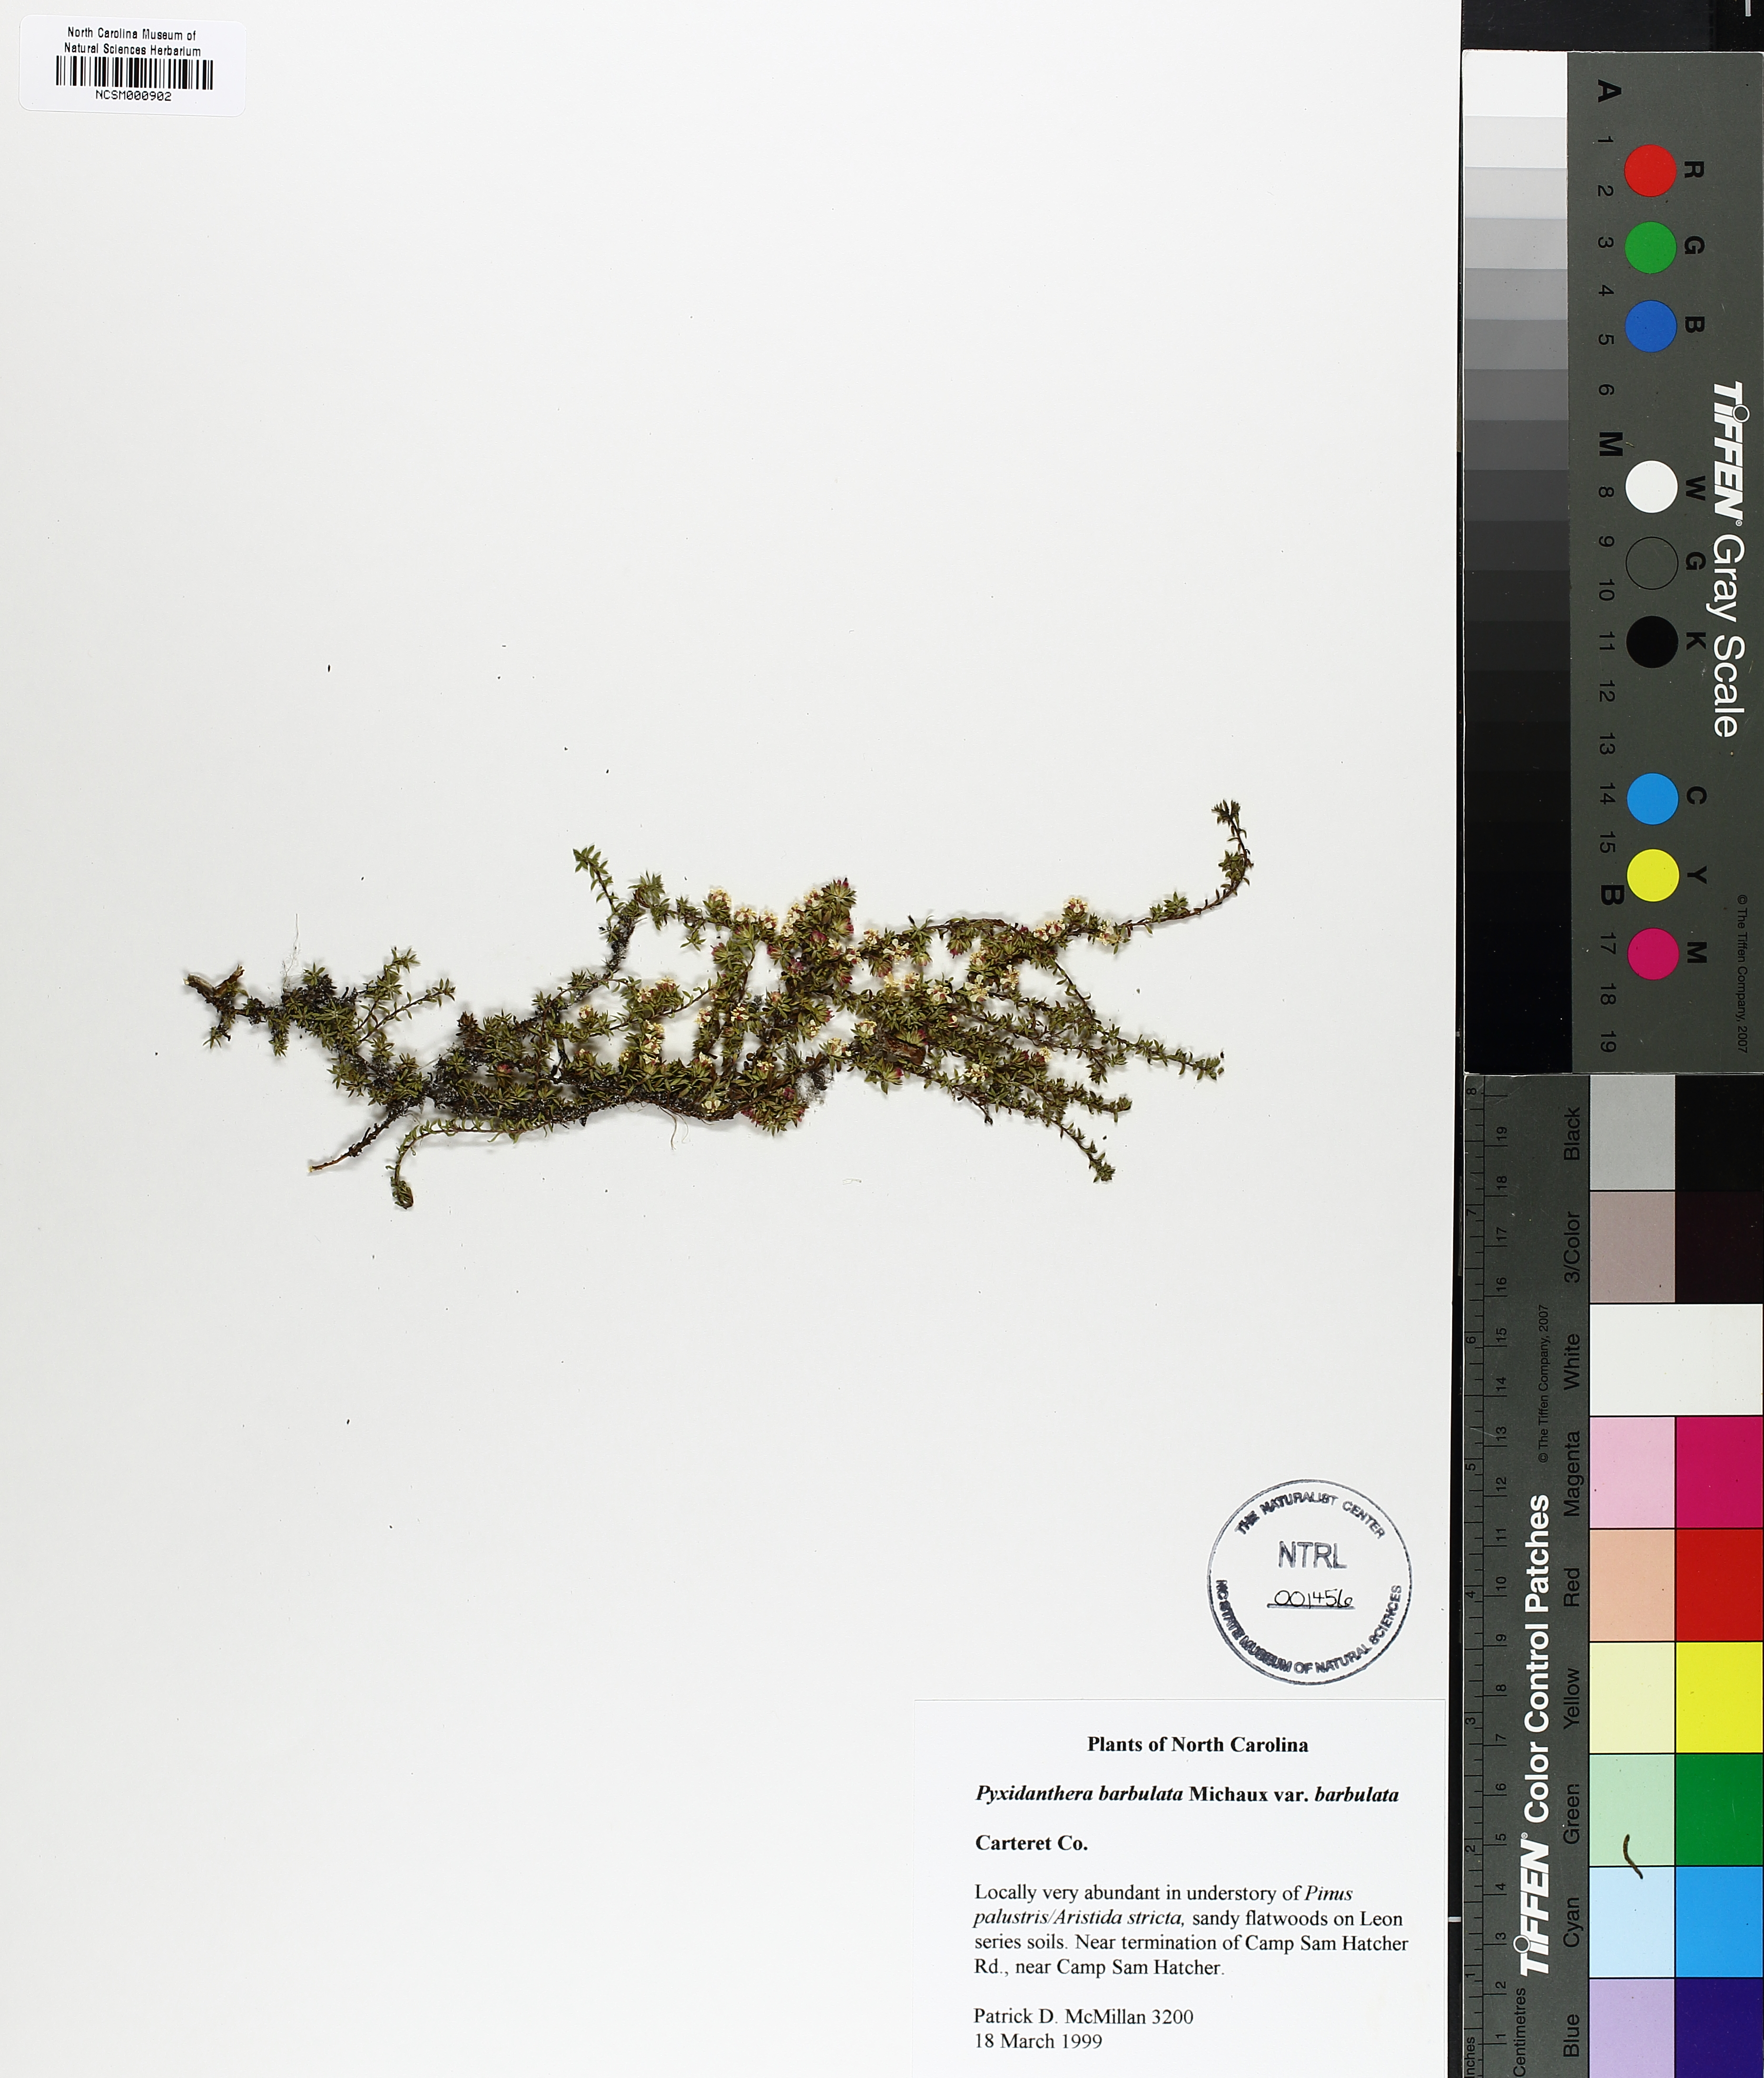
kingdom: Plantae
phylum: Tracheophyta
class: Magnoliopsida
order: Ericales
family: Diapensiaceae
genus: Pyxidanthera
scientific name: Pyxidanthera barbulata
